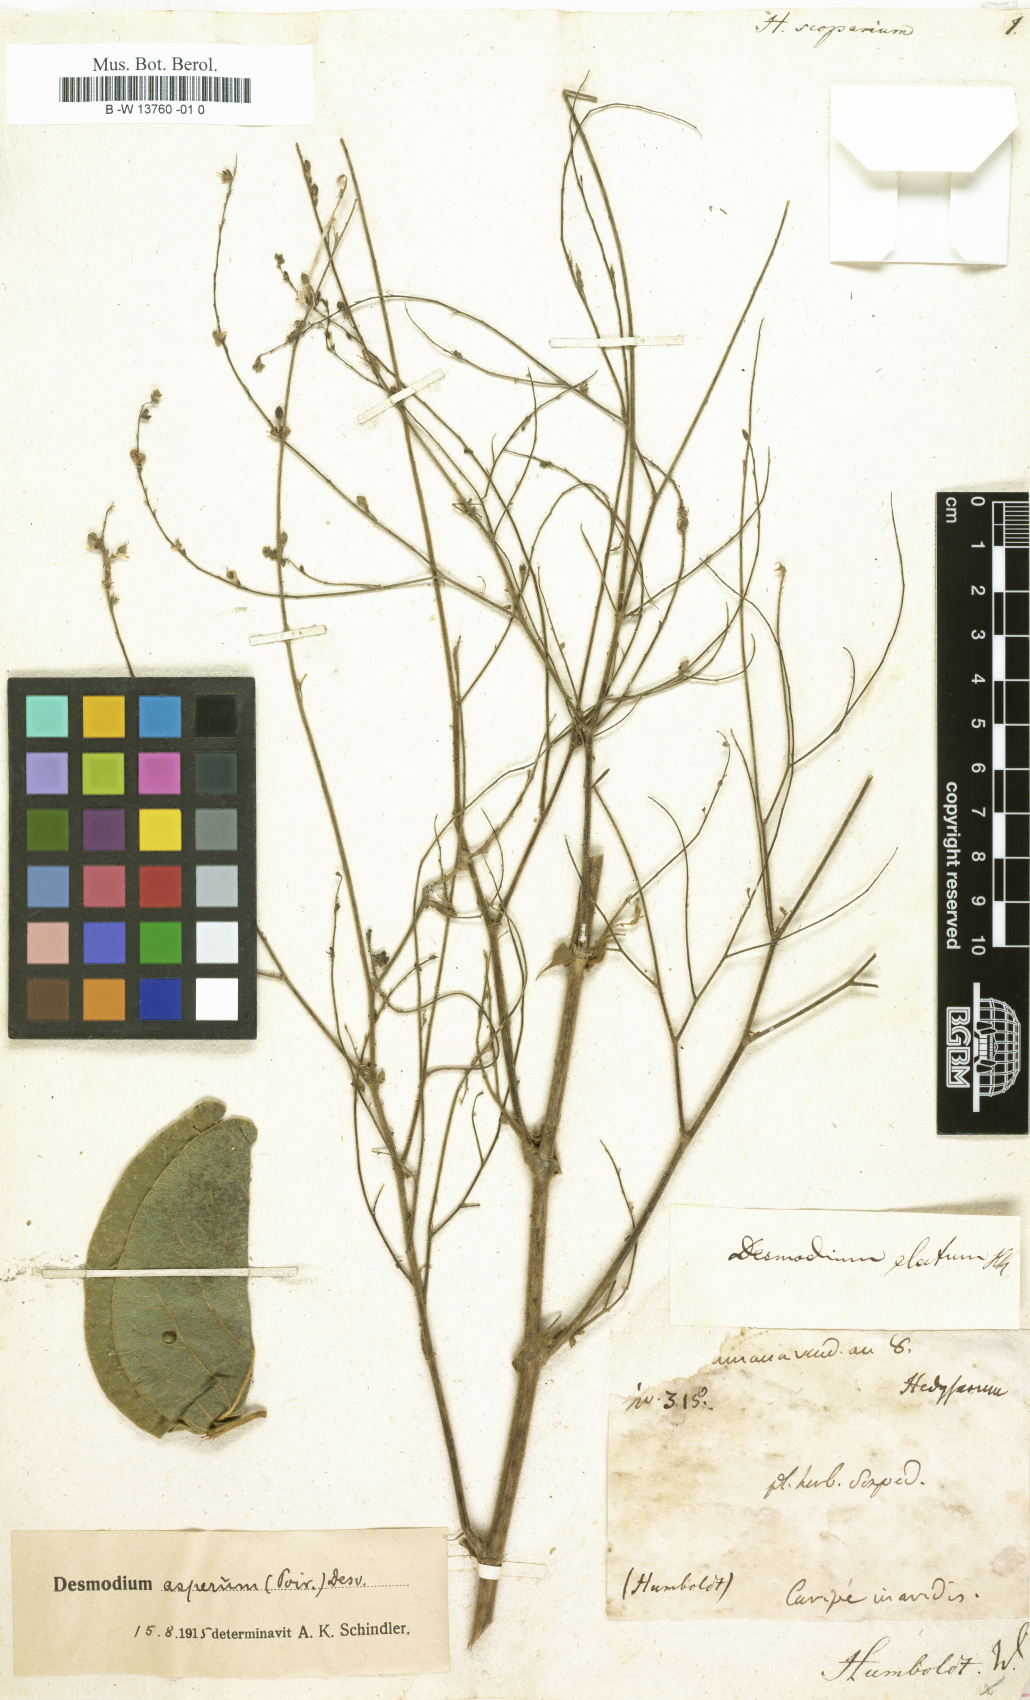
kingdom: Plantae
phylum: Tracheophyta
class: Magnoliopsida
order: Fabales
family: Fabaceae
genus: Corethrodendron
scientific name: Corethrodendron scoparium
